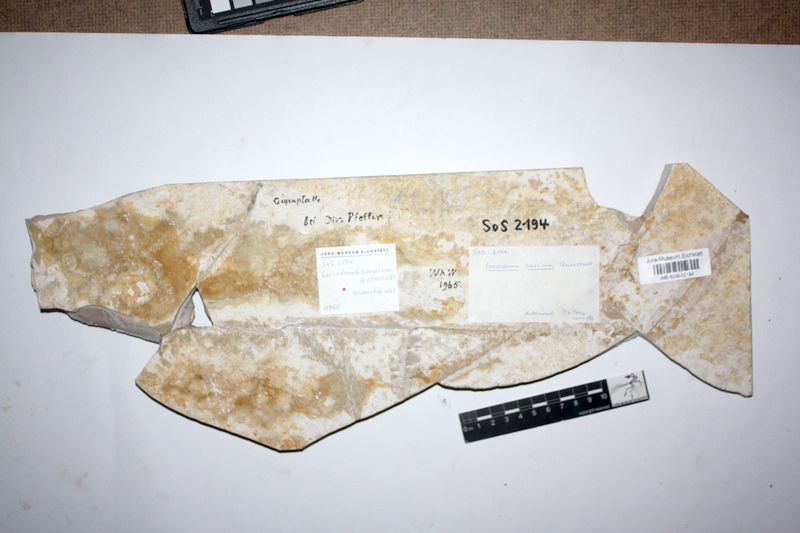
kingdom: Animalia
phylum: Chordata
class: Coelacanthi
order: Coelacanthiformes
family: Laugiidae
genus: Coccoderma
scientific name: Coccoderma suevicum
